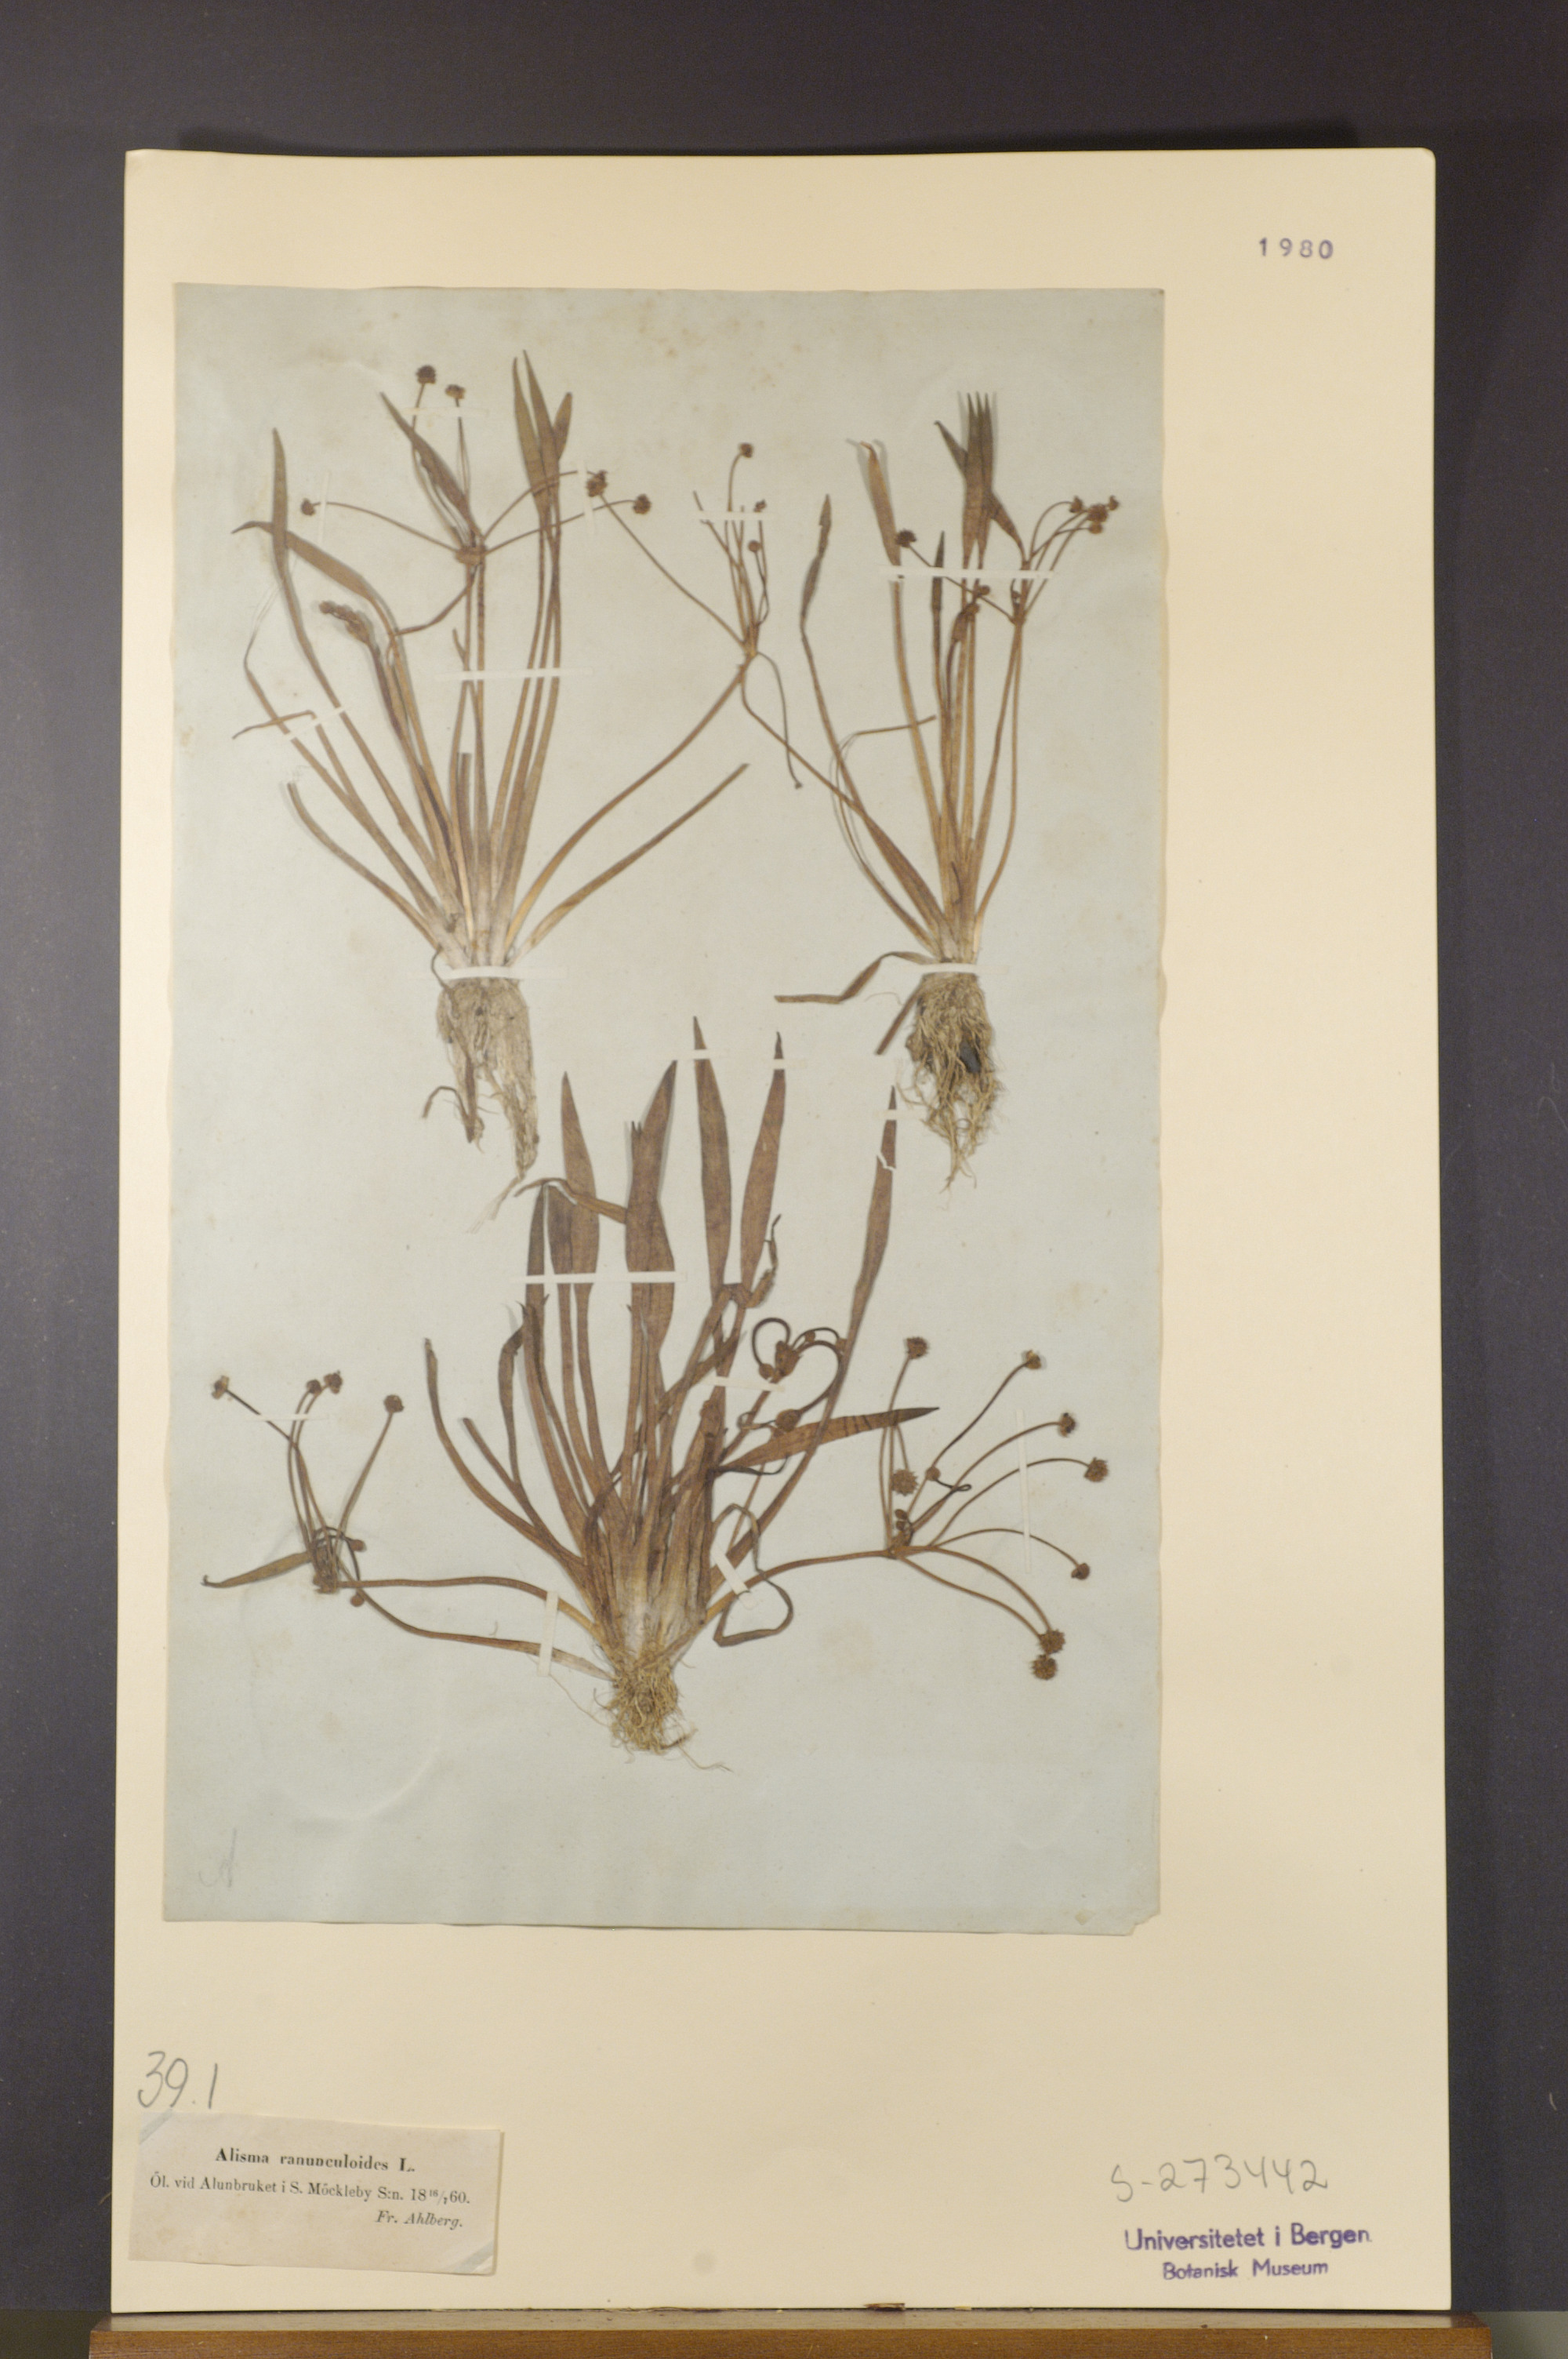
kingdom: Plantae
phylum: Tracheophyta
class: Liliopsida
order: Alismatales
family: Alismataceae
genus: Baldellia
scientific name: Baldellia ranunculoides
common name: Lesser water-plantain
